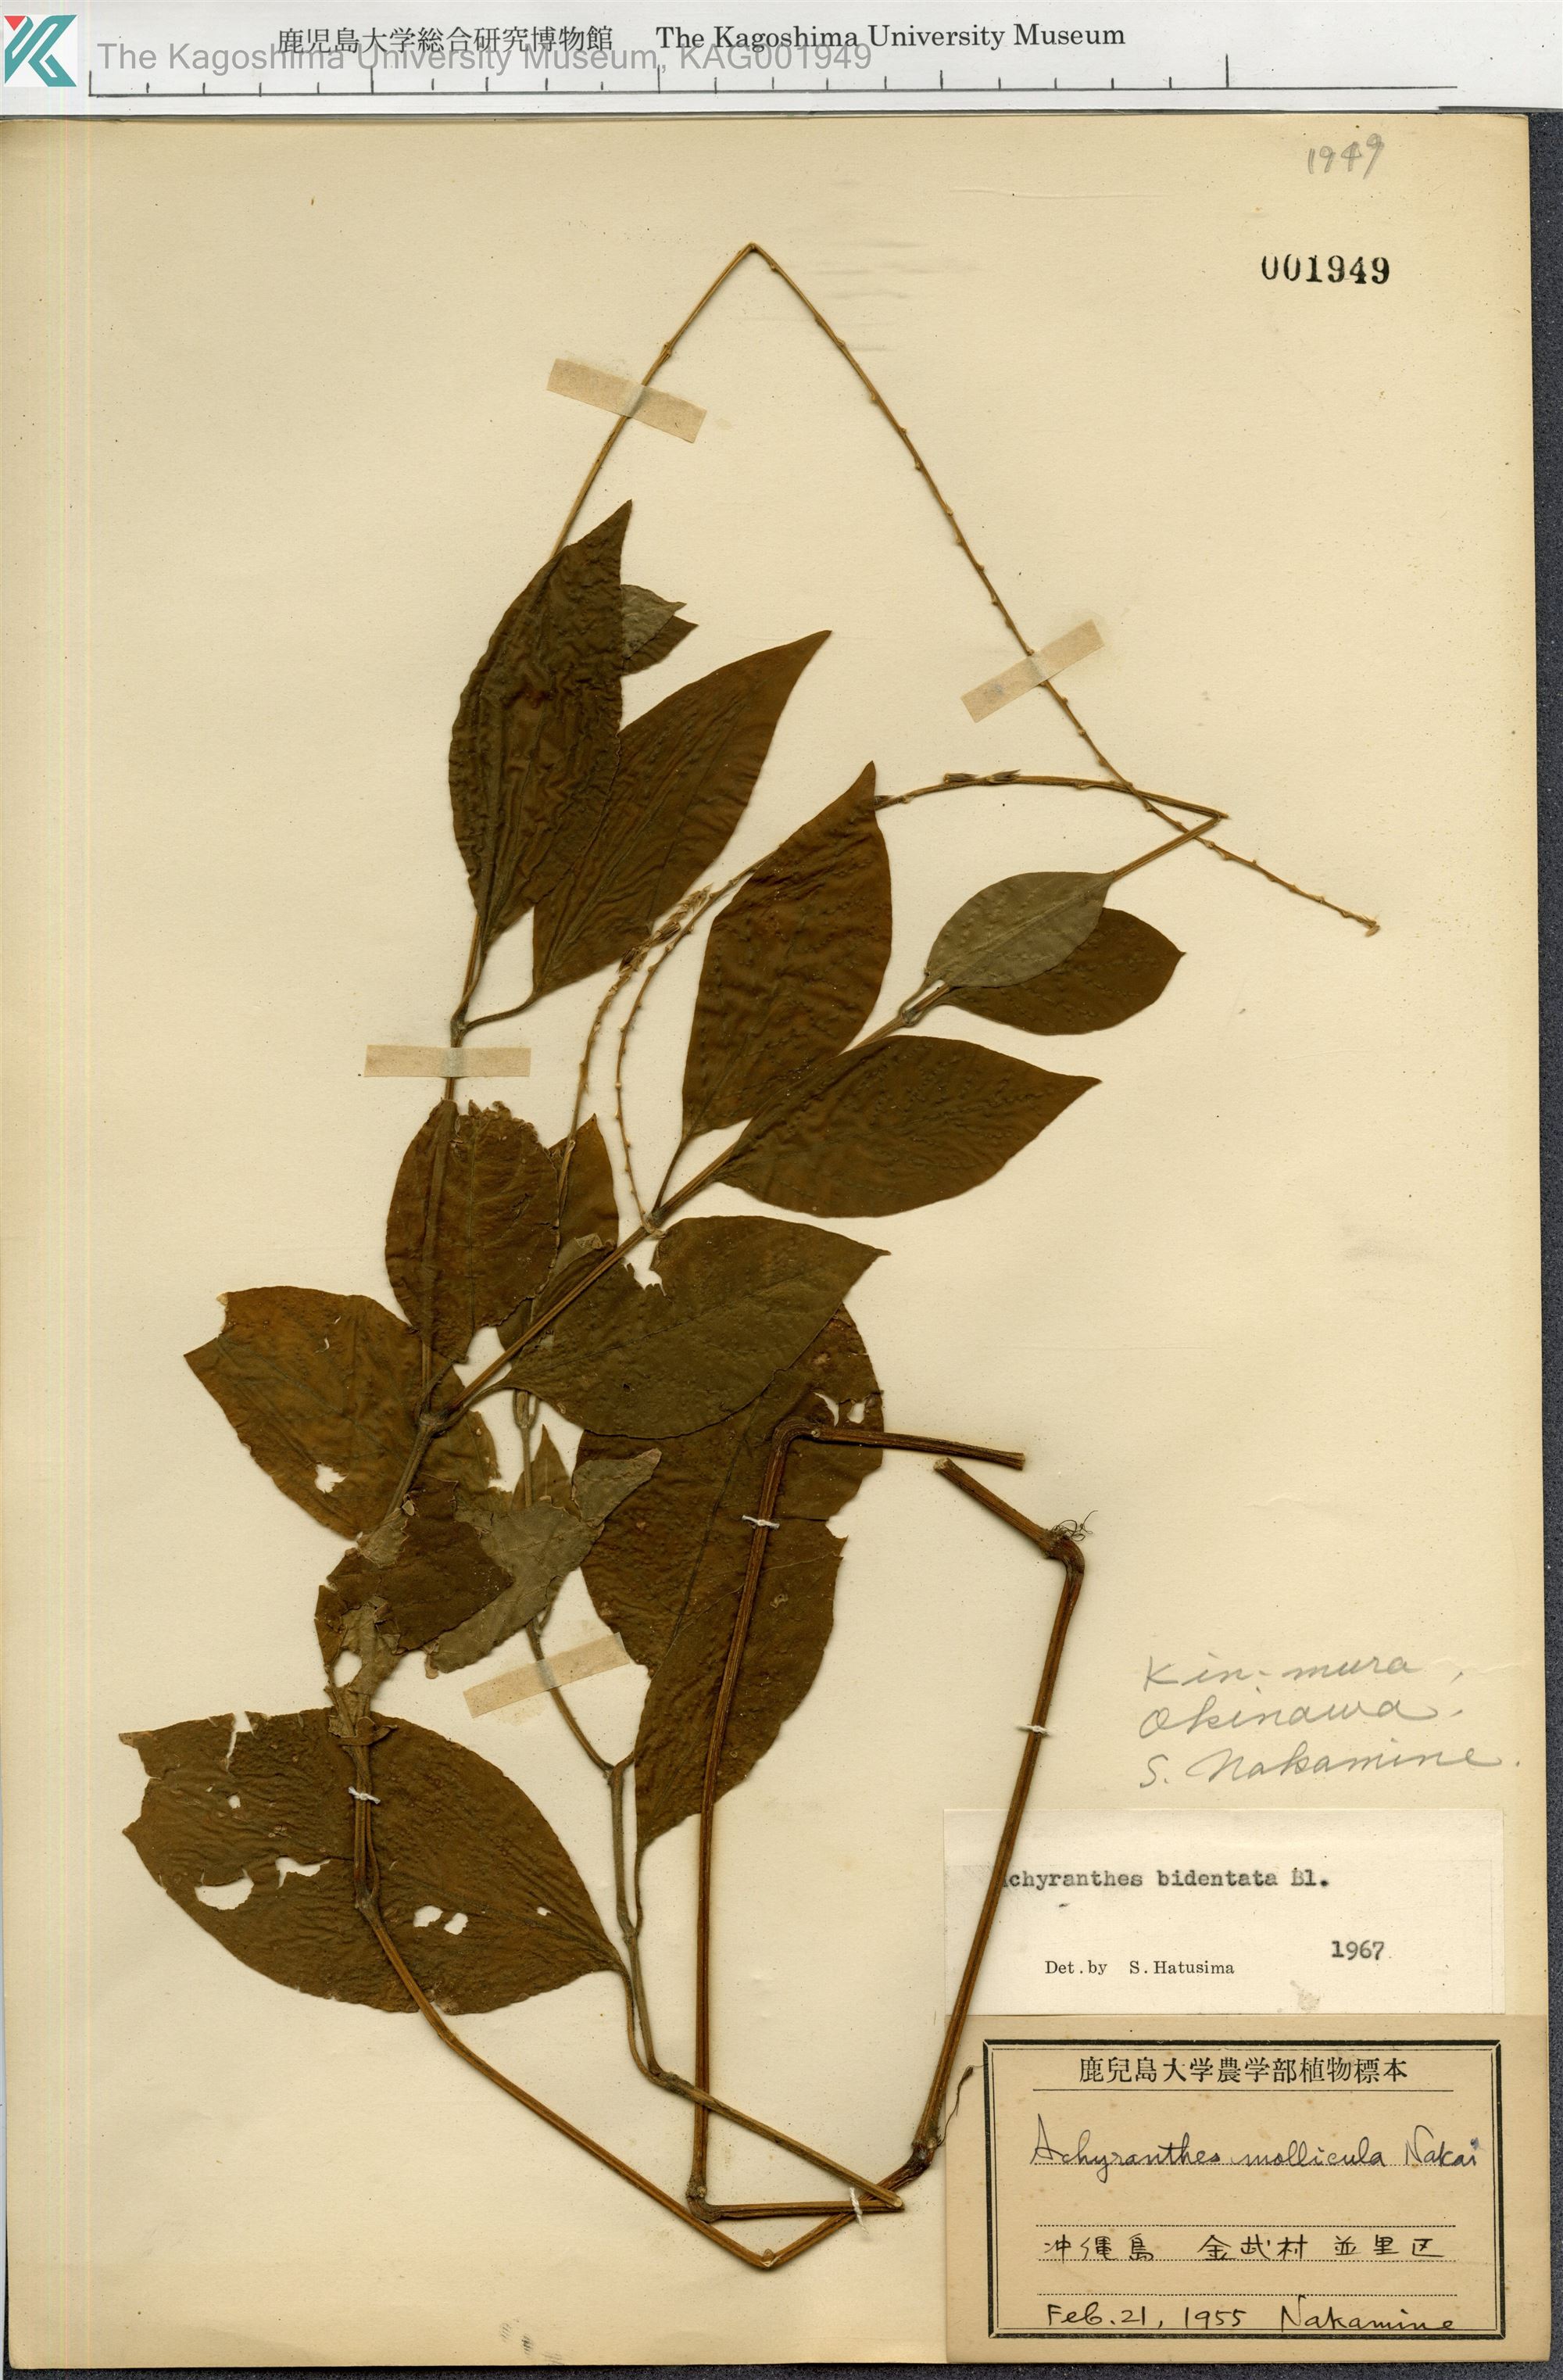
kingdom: Plantae
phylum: Tracheophyta
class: Magnoliopsida
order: Caryophyllales
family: Amaranthaceae
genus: Achyranthes
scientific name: Achyranthes bidentata
